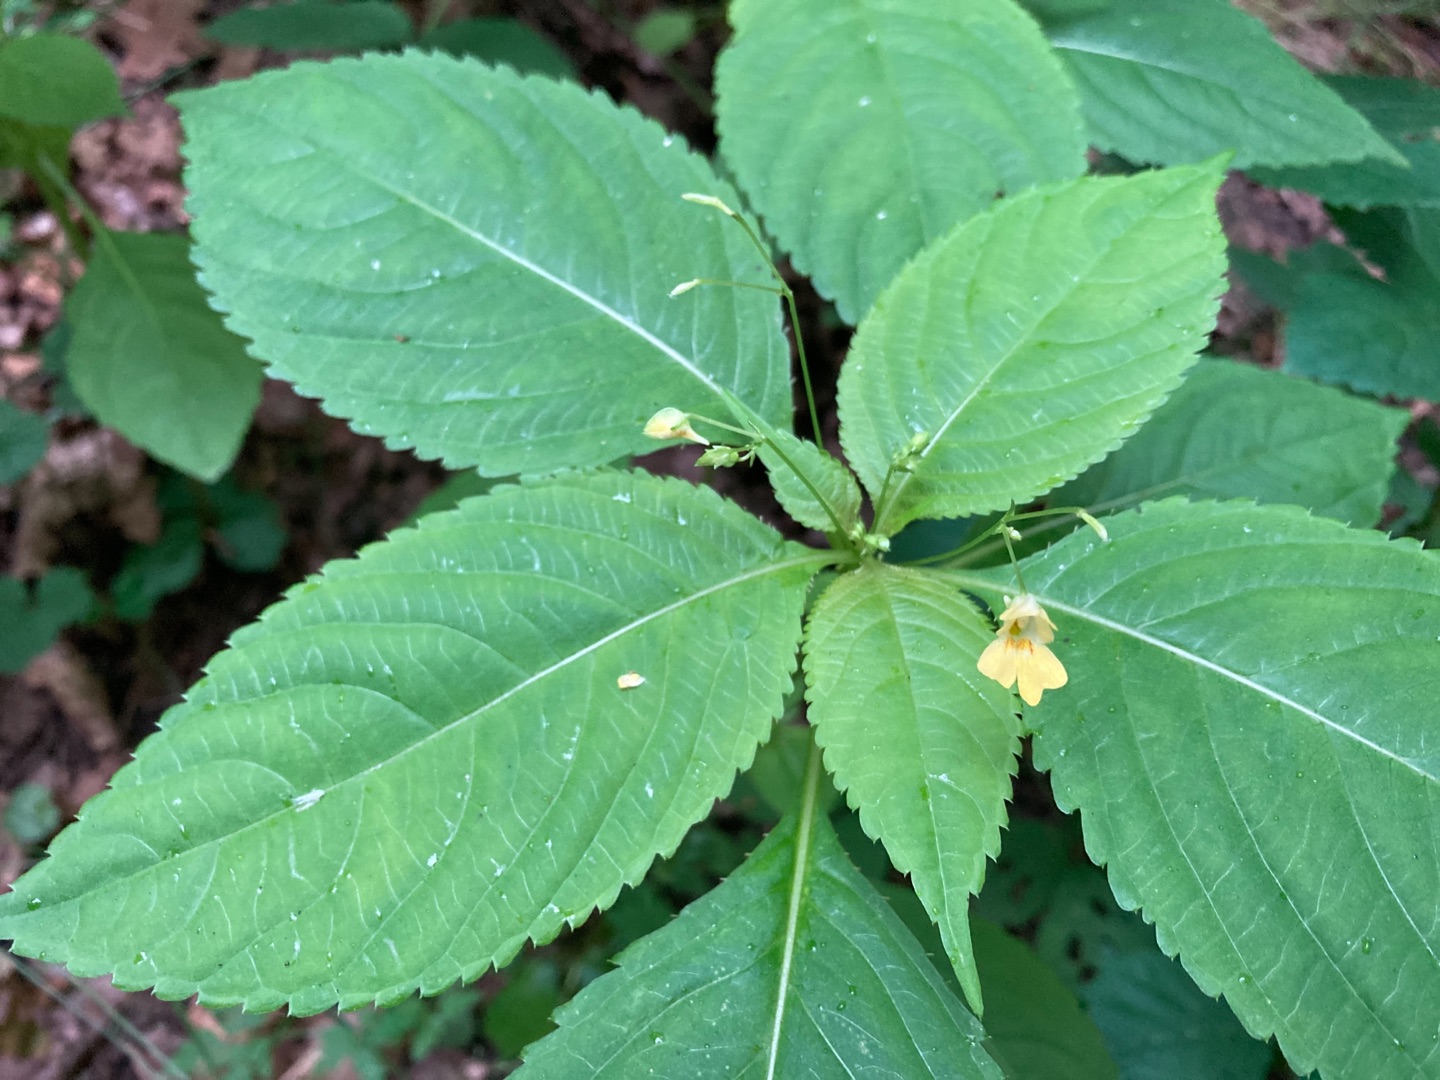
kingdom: Plantae
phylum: Tracheophyta
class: Magnoliopsida
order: Ericales
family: Balsaminaceae
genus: Impatiens
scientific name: Impatiens parviflora
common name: Småblomstret balsamin
